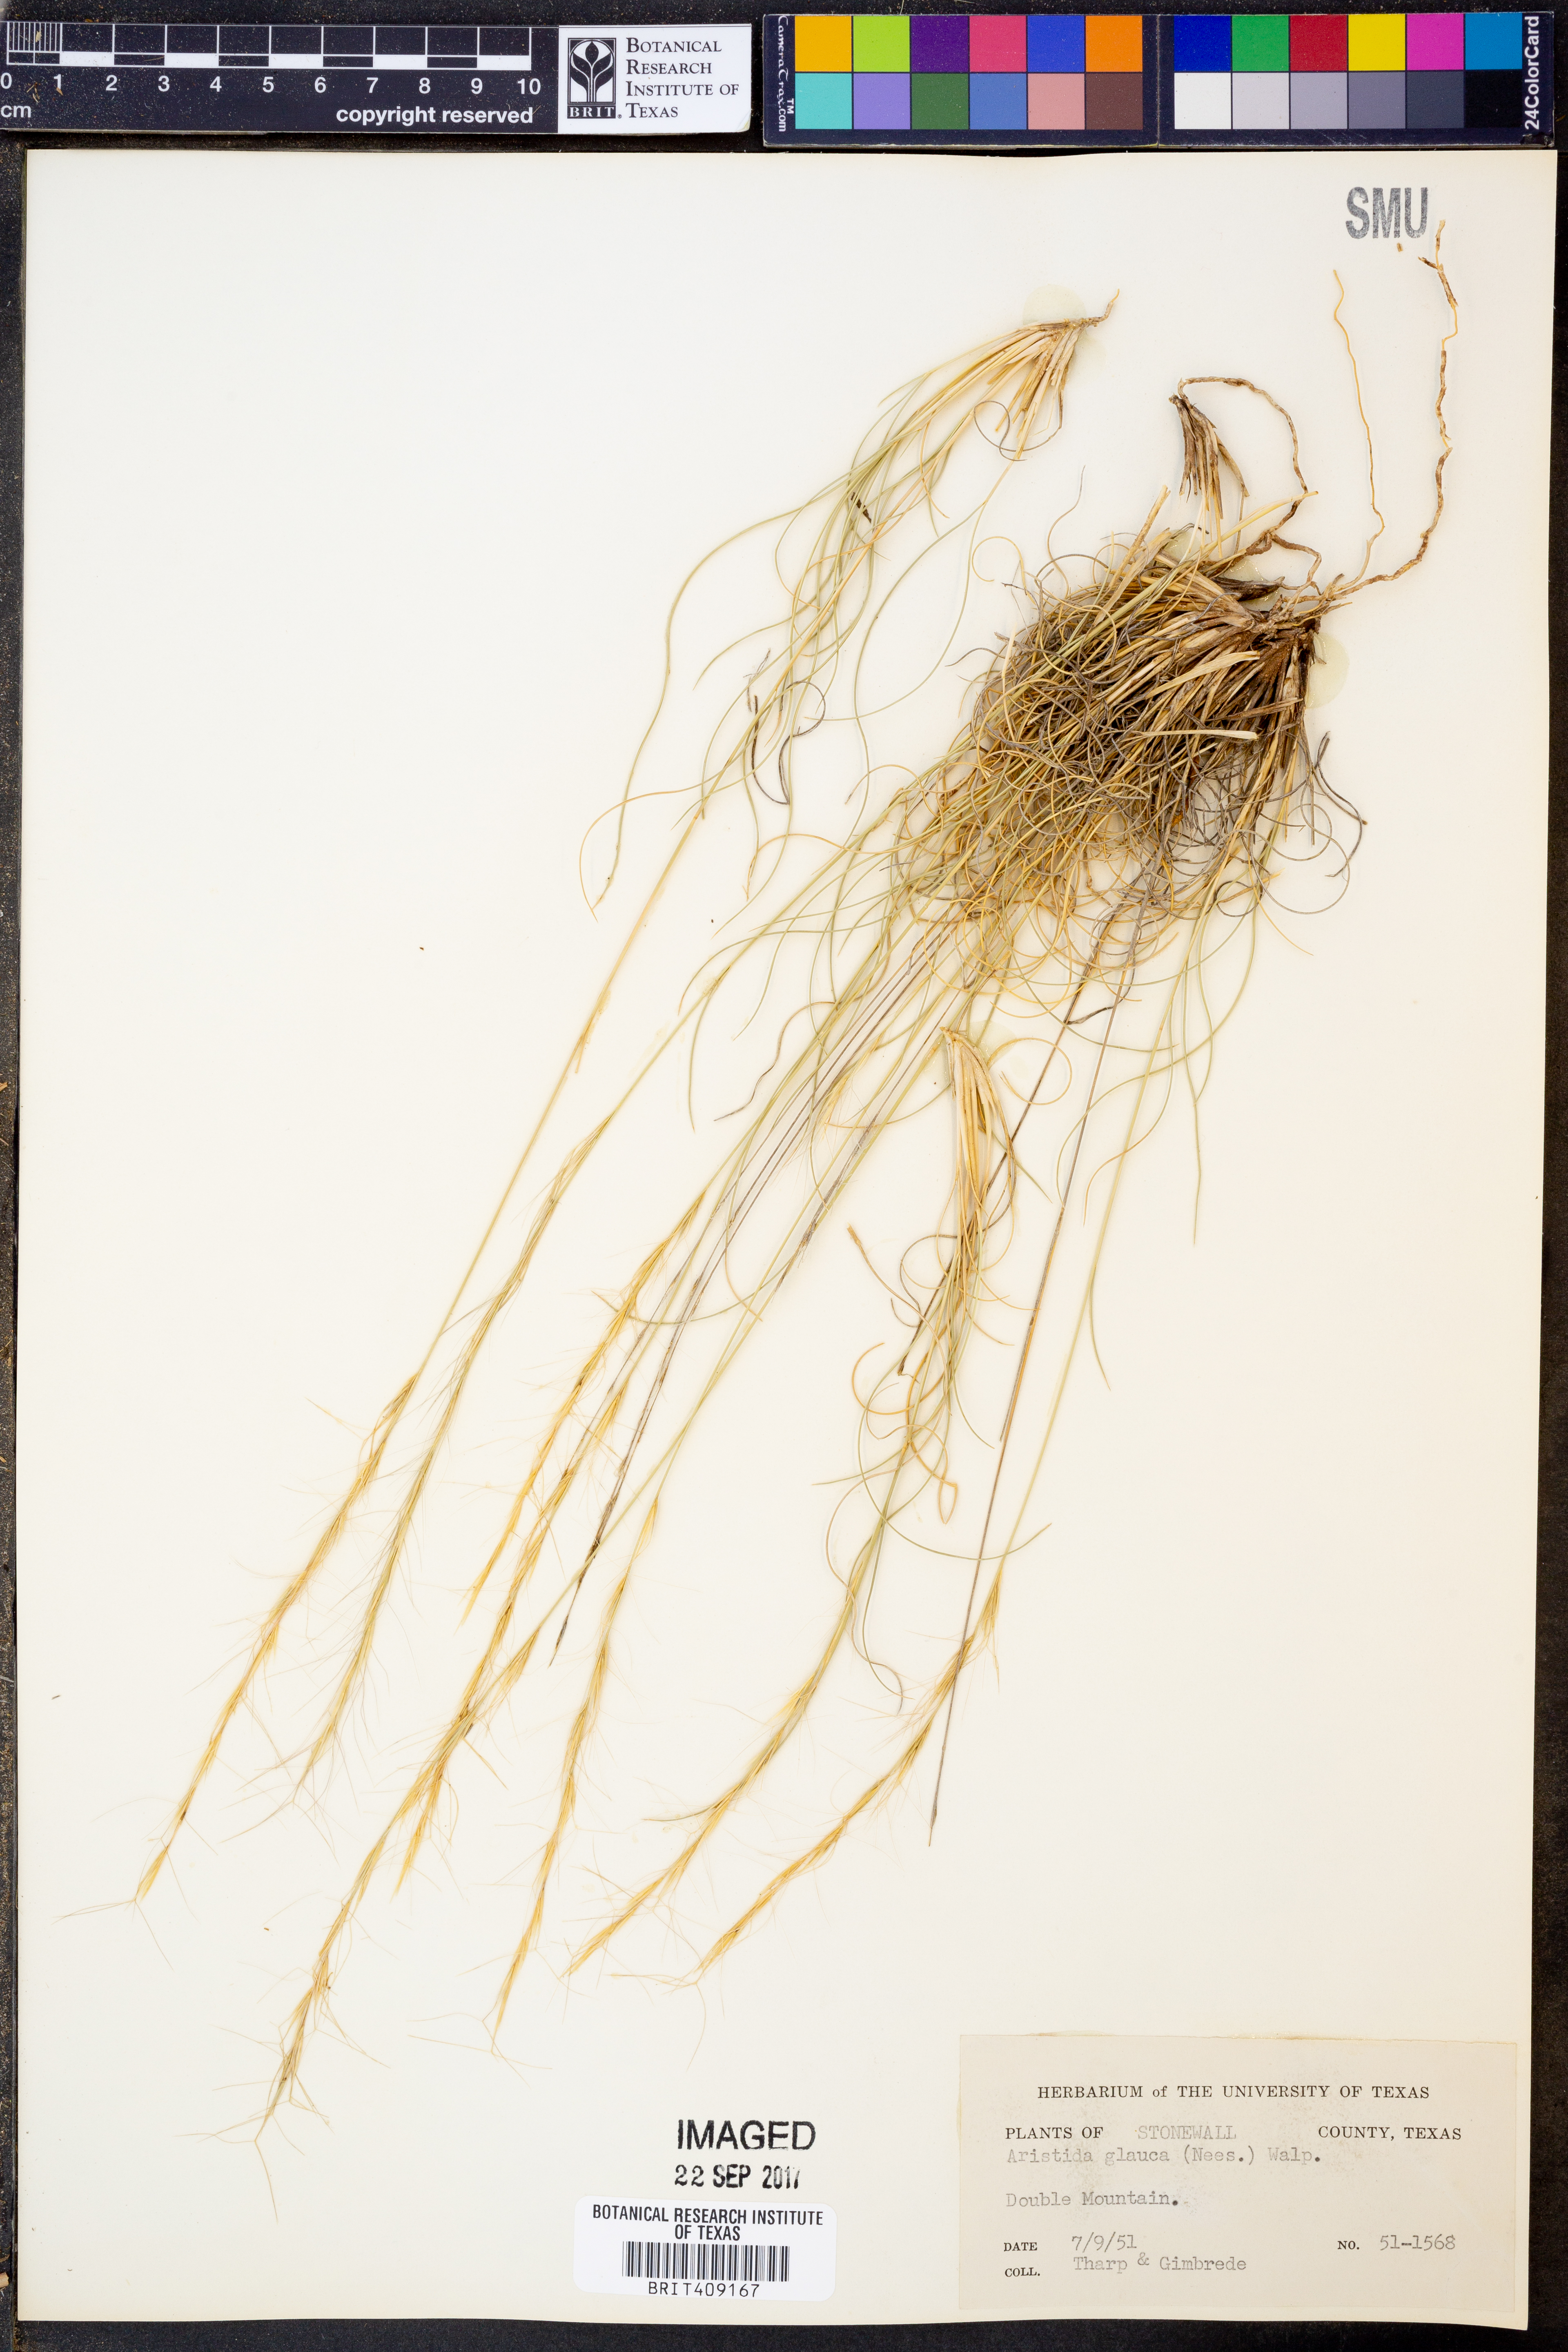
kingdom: Plantae
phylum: Tracheophyta
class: Liliopsida
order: Poales
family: Poaceae
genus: Aristida
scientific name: Aristida glauca
